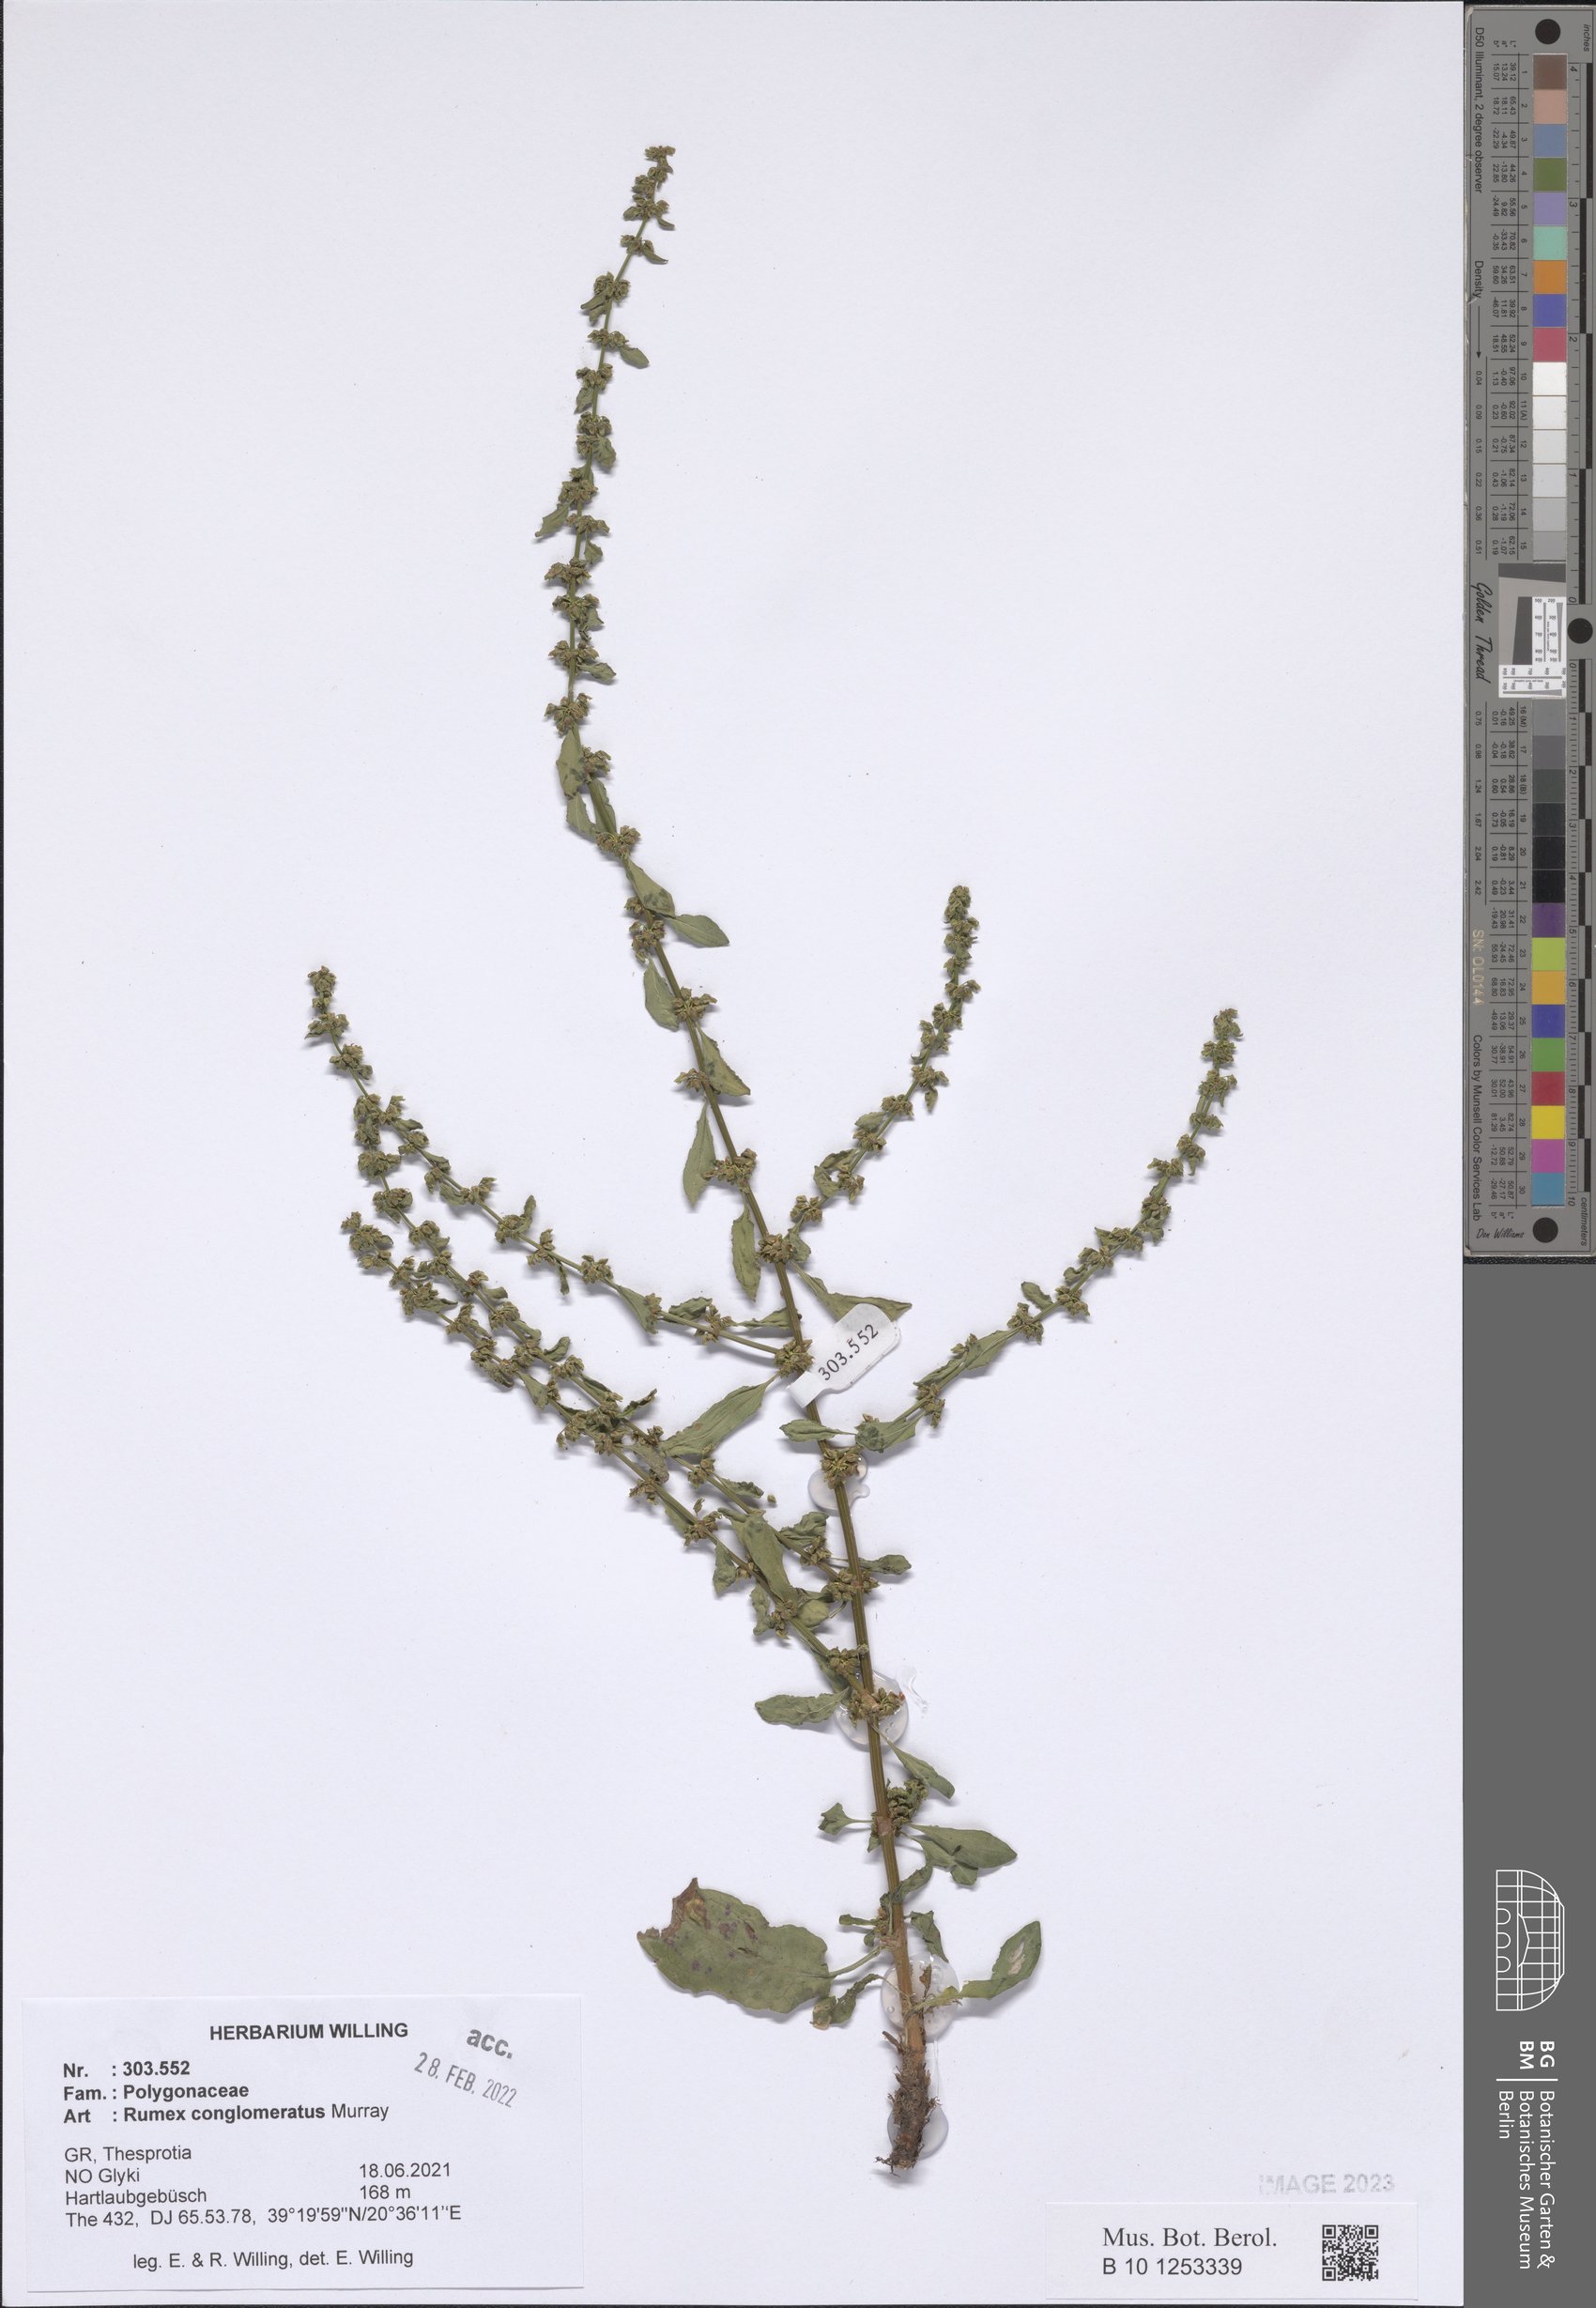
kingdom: Plantae
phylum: Tracheophyta
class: Magnoliopsida
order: Caryophyllales
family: Polygonaceae
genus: Rumex
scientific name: Rumex conglomeratus
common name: Clustered dock
